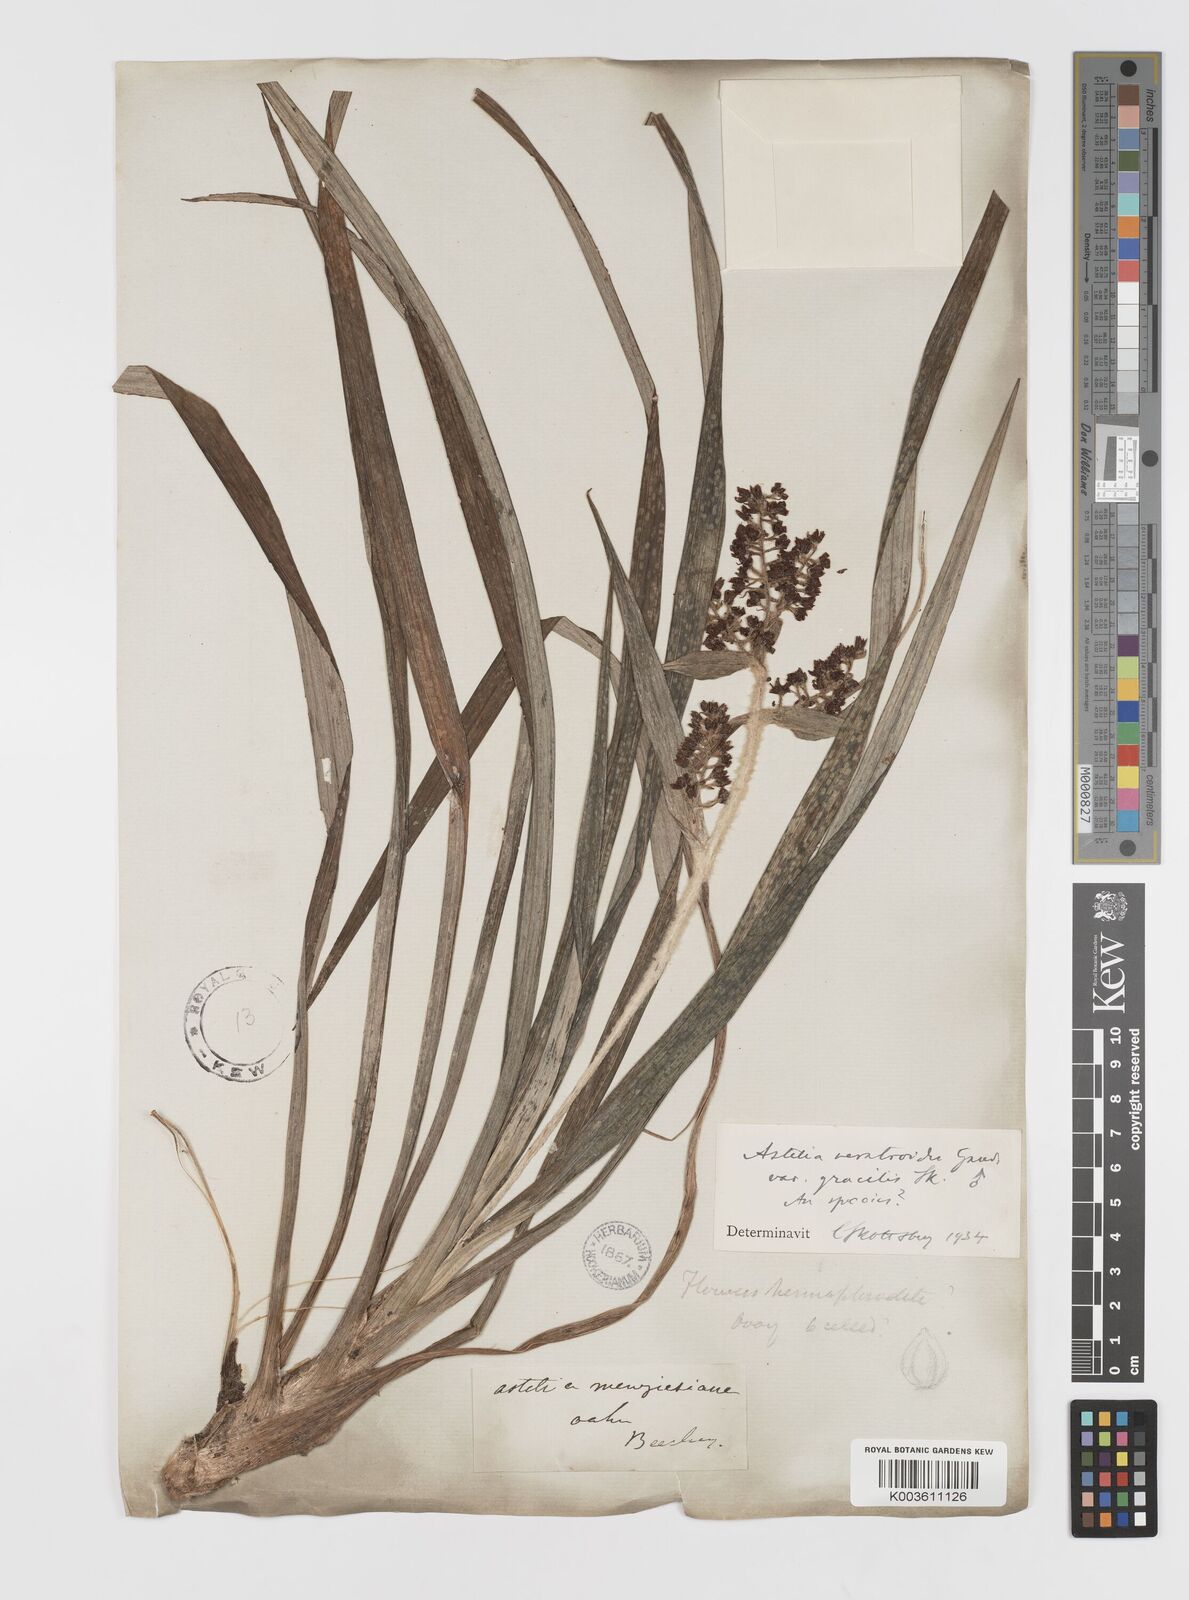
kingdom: Plantae
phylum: Tracheophyta
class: Liliopsida
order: Asparagales
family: Asteliaceae
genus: Astelia
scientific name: Astelia menziesiana
